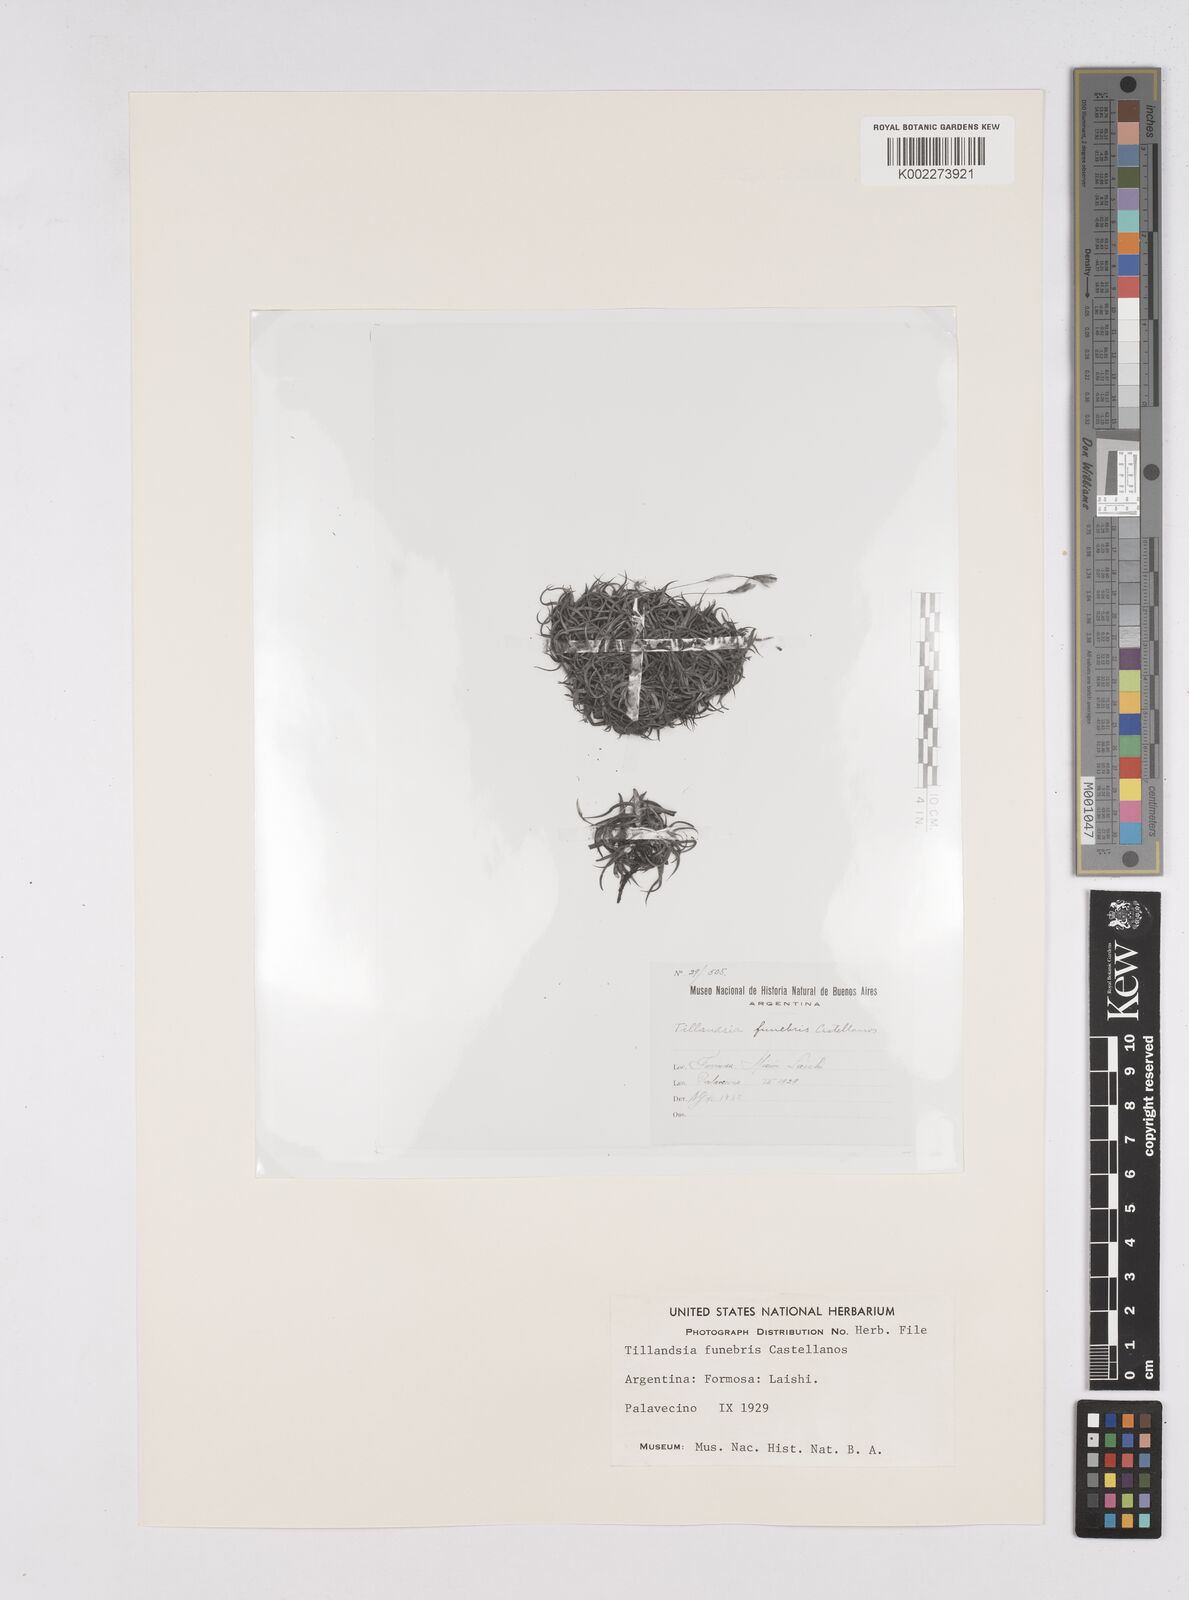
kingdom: Plantae
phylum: Tracheophyta
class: Liliopsida
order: Poales
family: Bromeliaceae
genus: Tillandsia
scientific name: Tillandsia funebris
